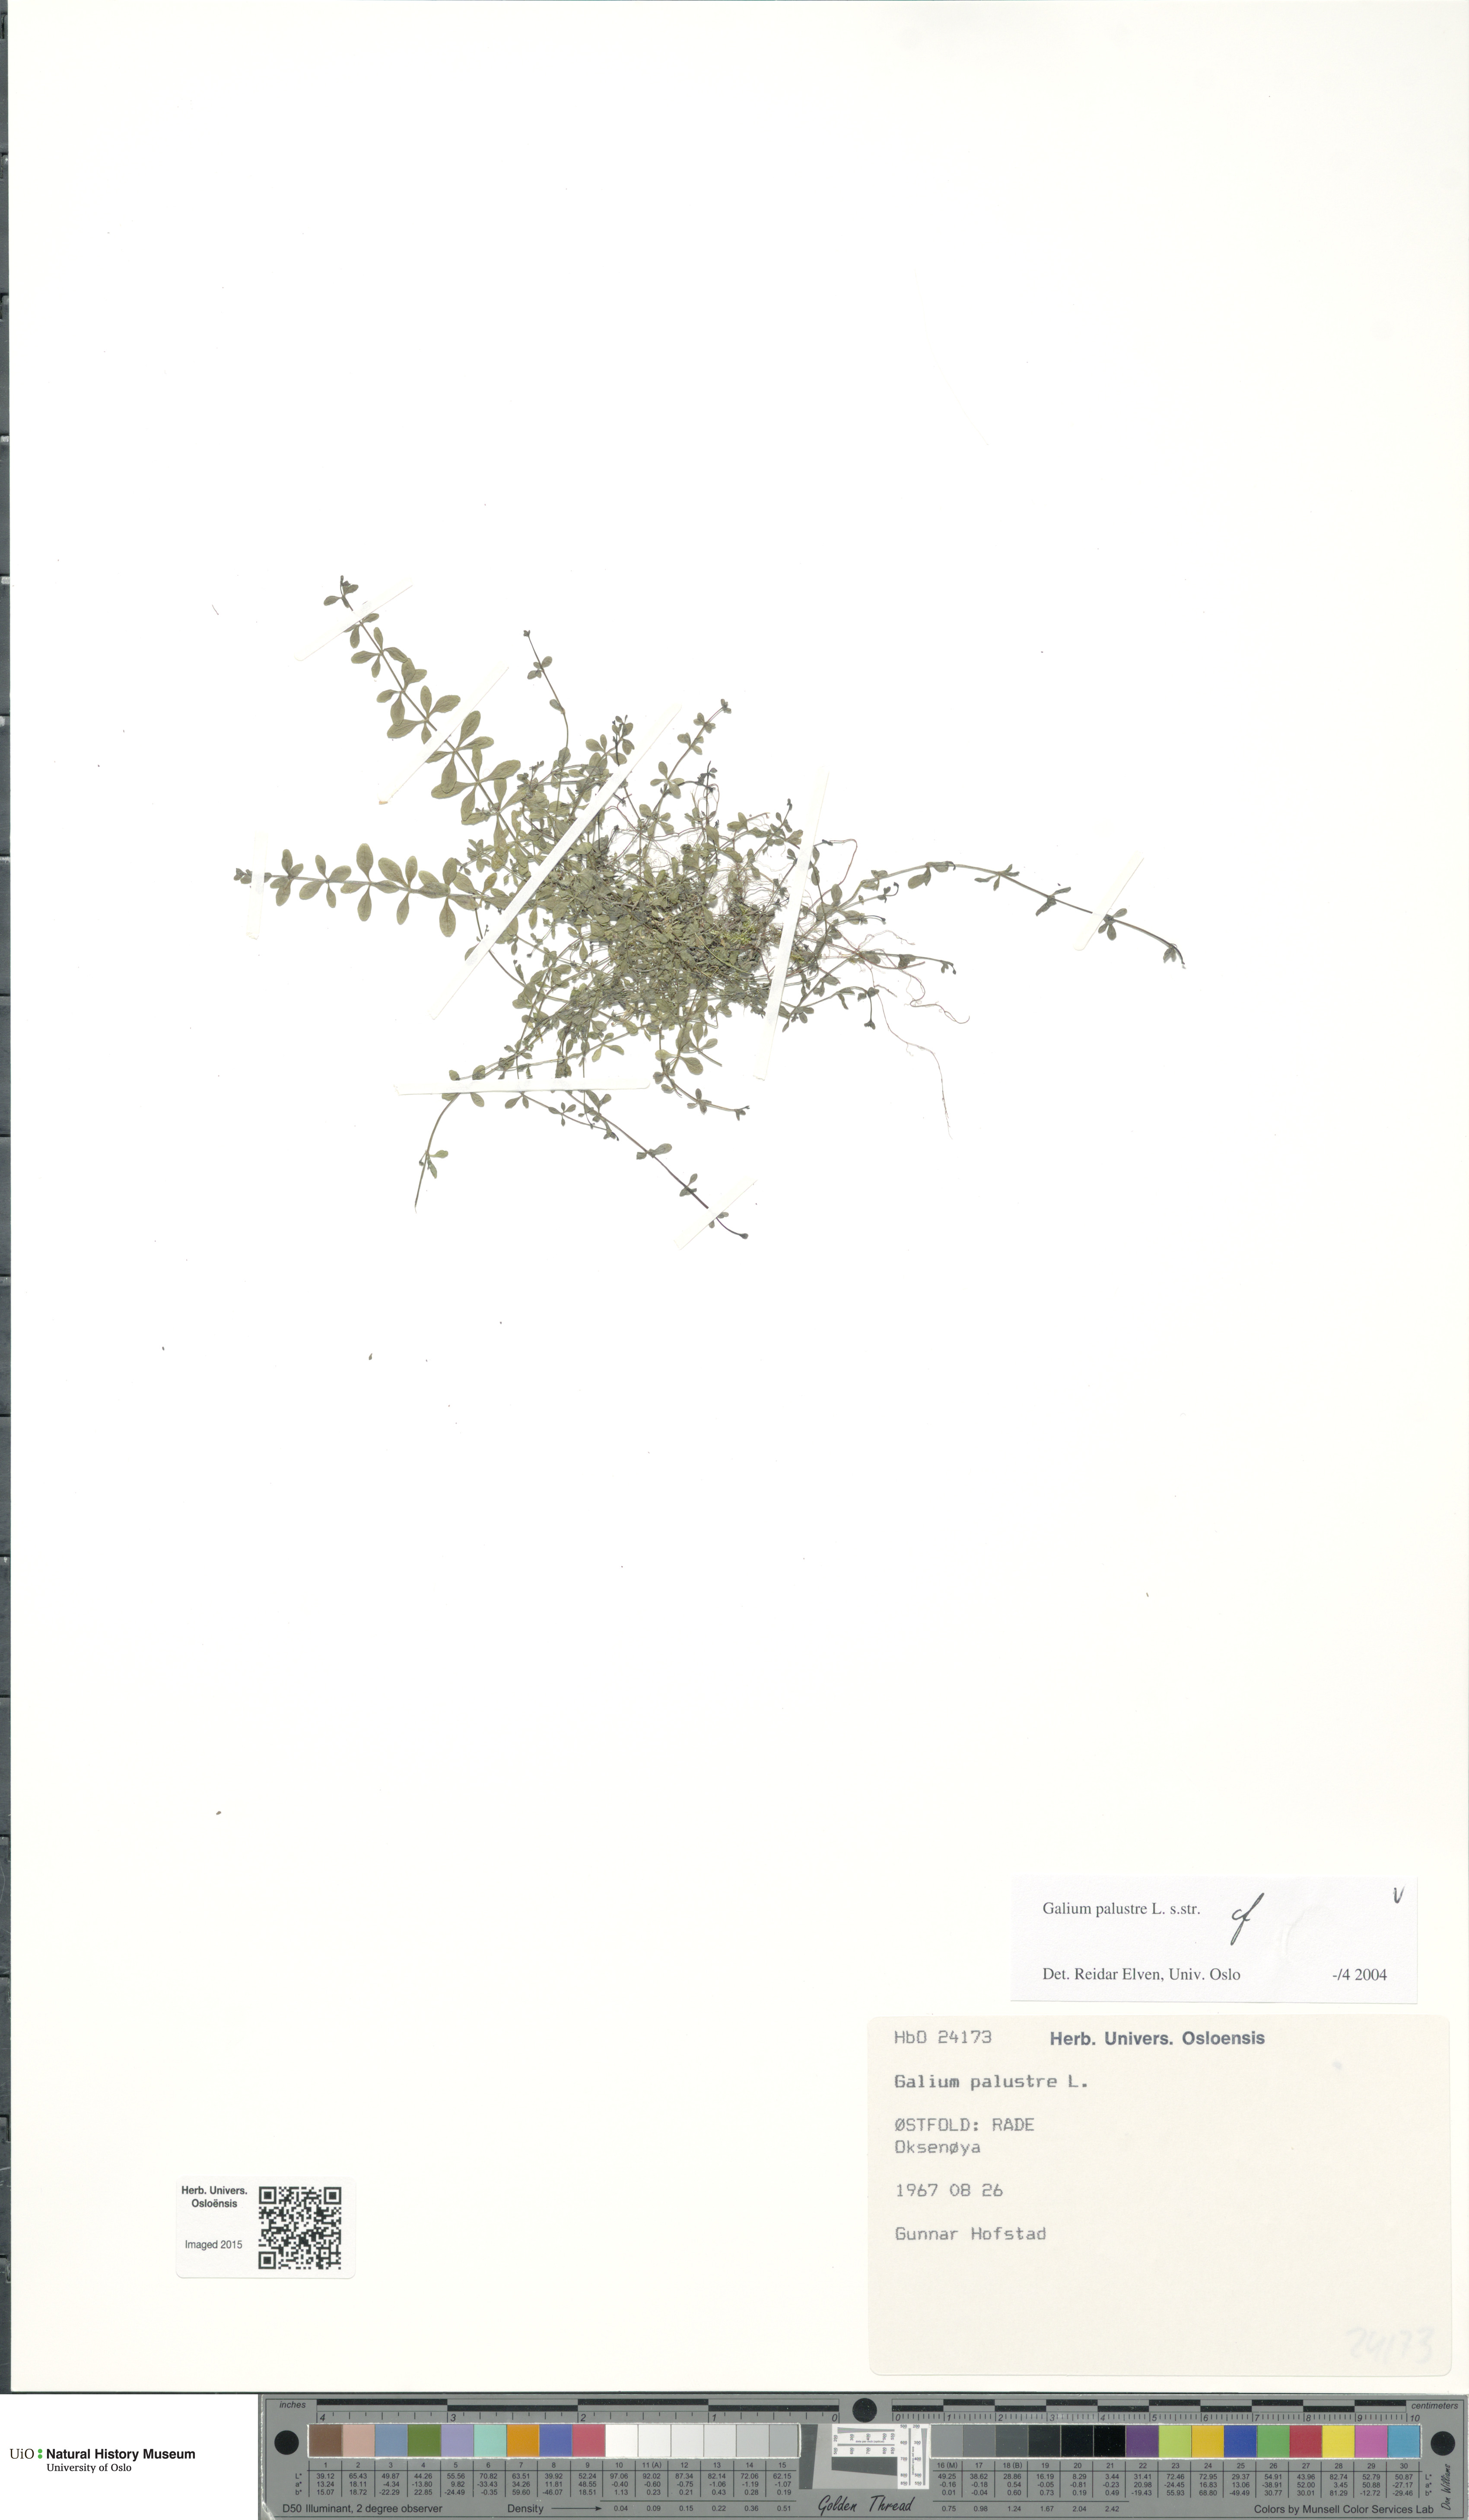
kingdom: Plantae
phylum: Tracheophyta
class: Magnoliopsida
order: Gentianales
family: Rubiaceae
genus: Galium
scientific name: Galium palustre
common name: Common marsh-bedstraw
